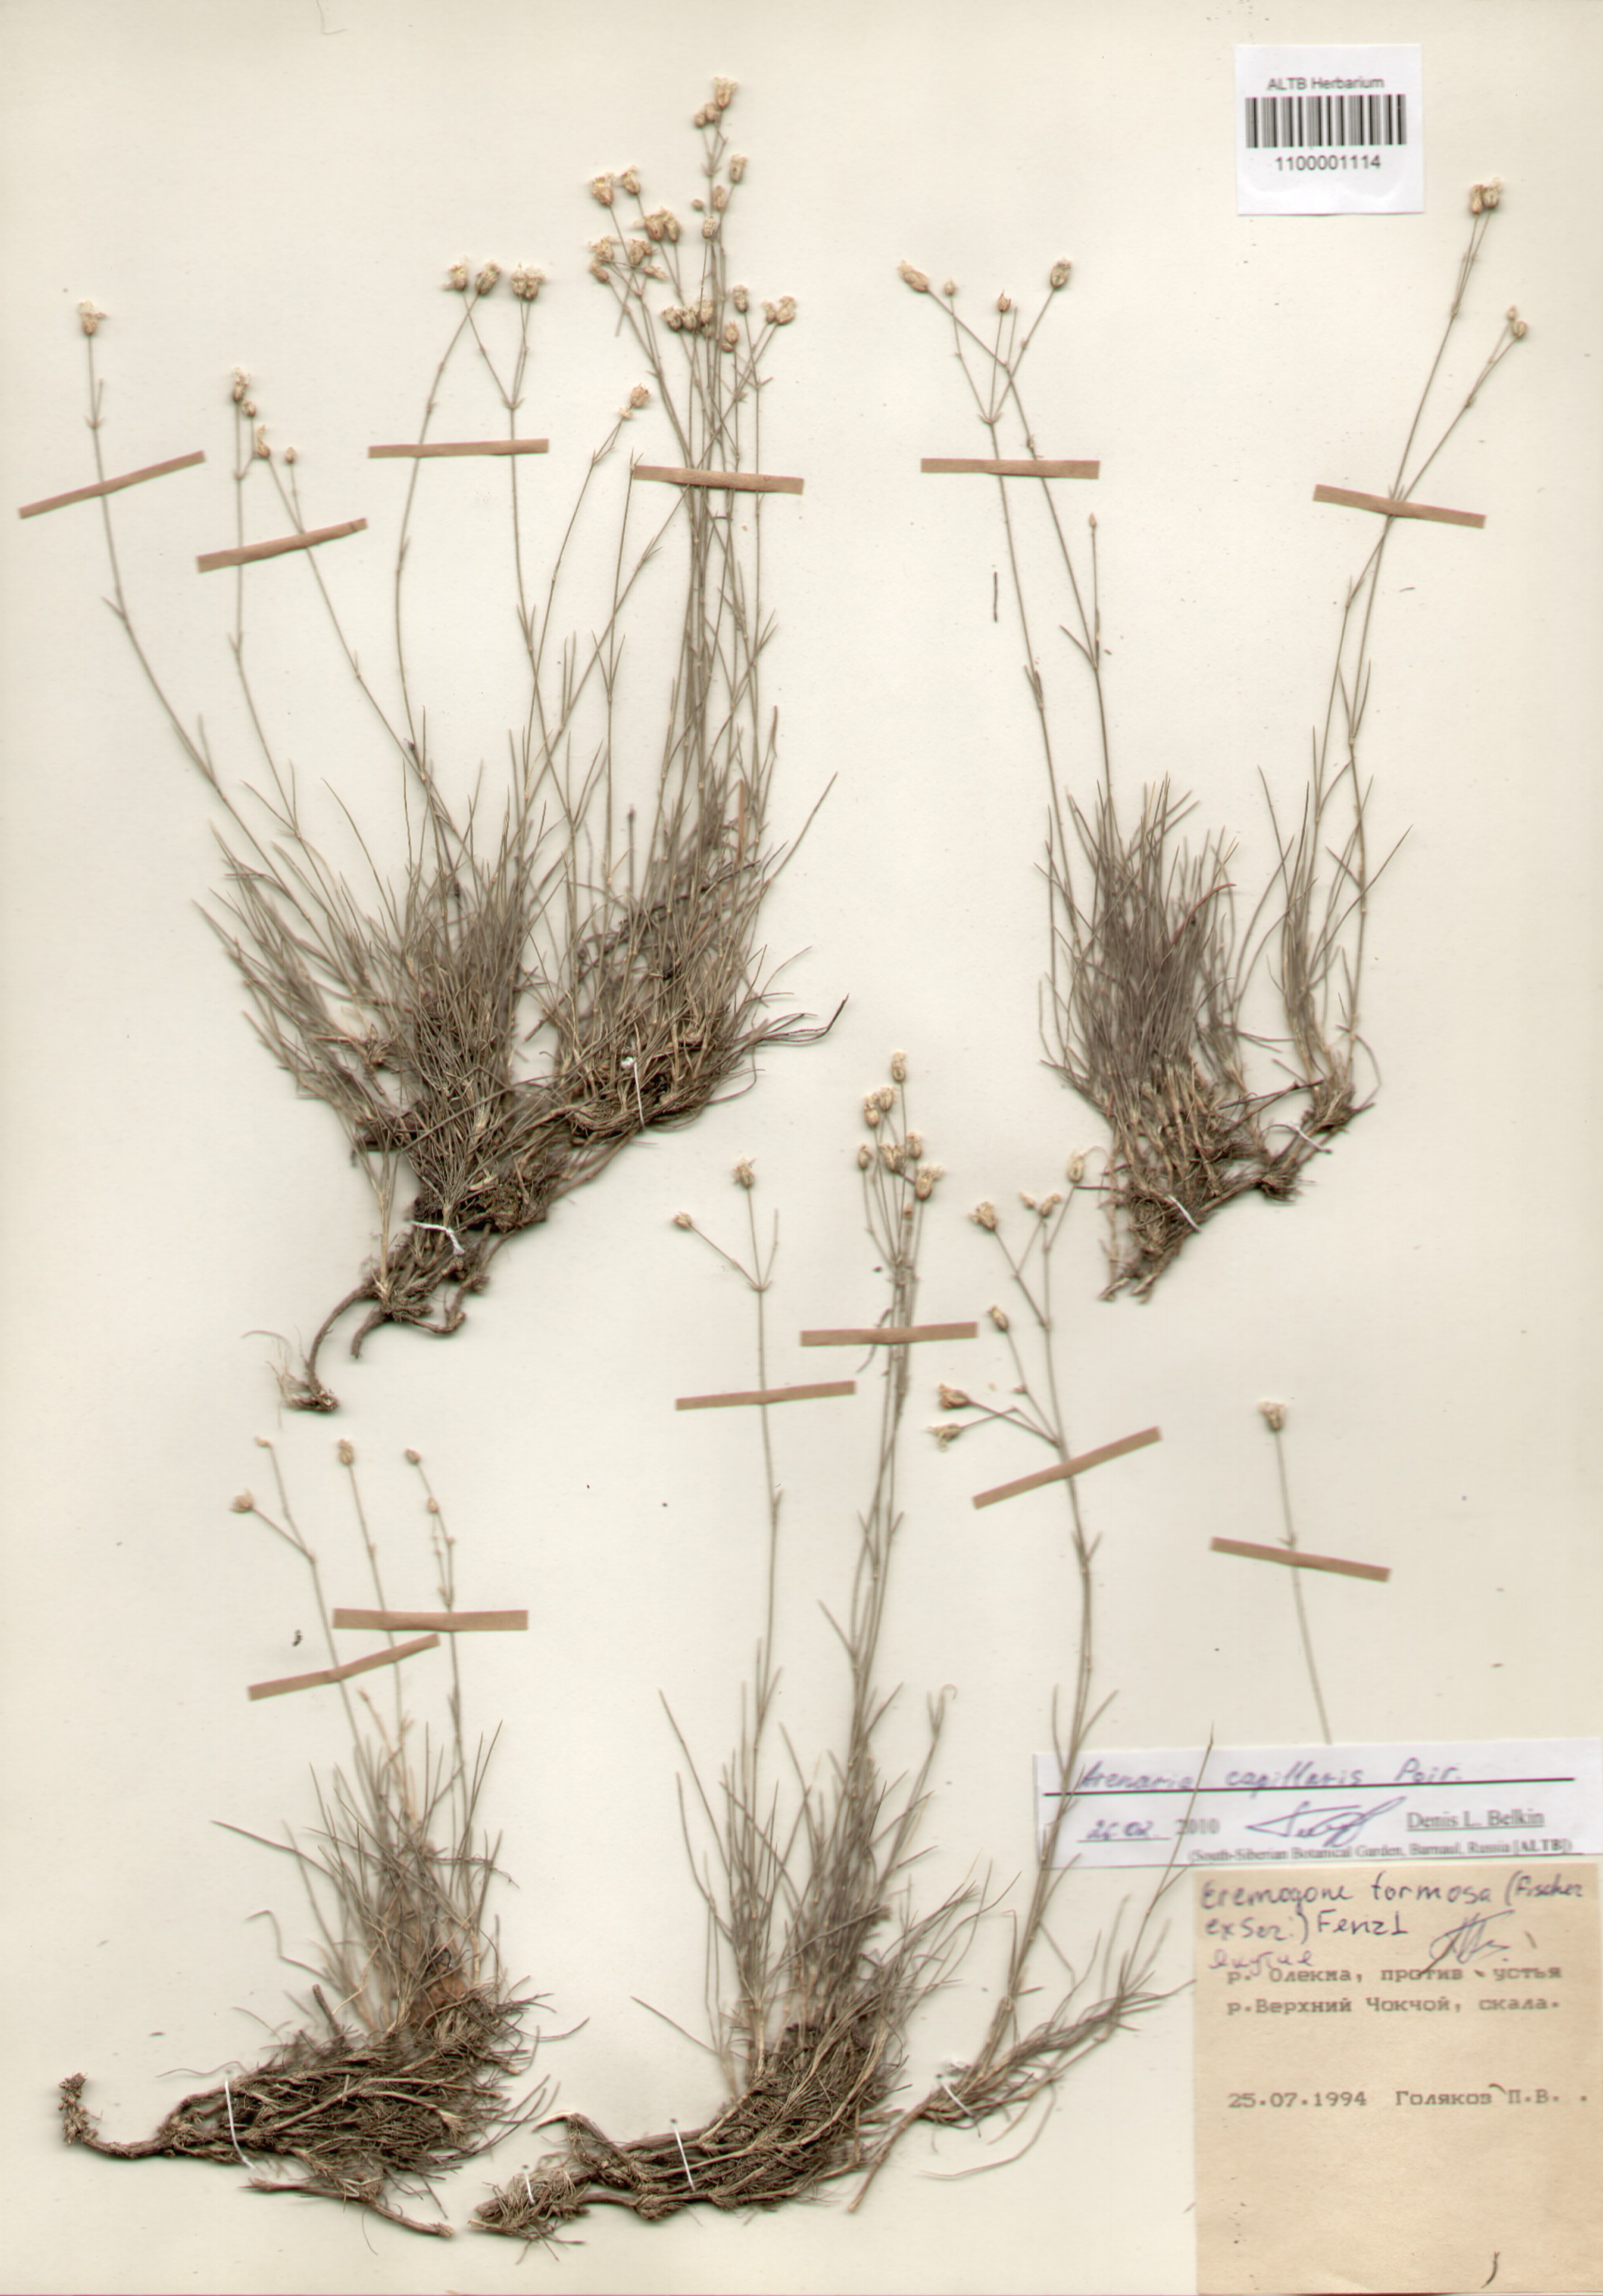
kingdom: Plantae
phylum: Tracheophyta
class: Magnoliopsida
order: Caryophyllales
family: Caryophyllaceae
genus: Eremogone
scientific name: Eremogone capillaris
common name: Slender mountain sandwort
